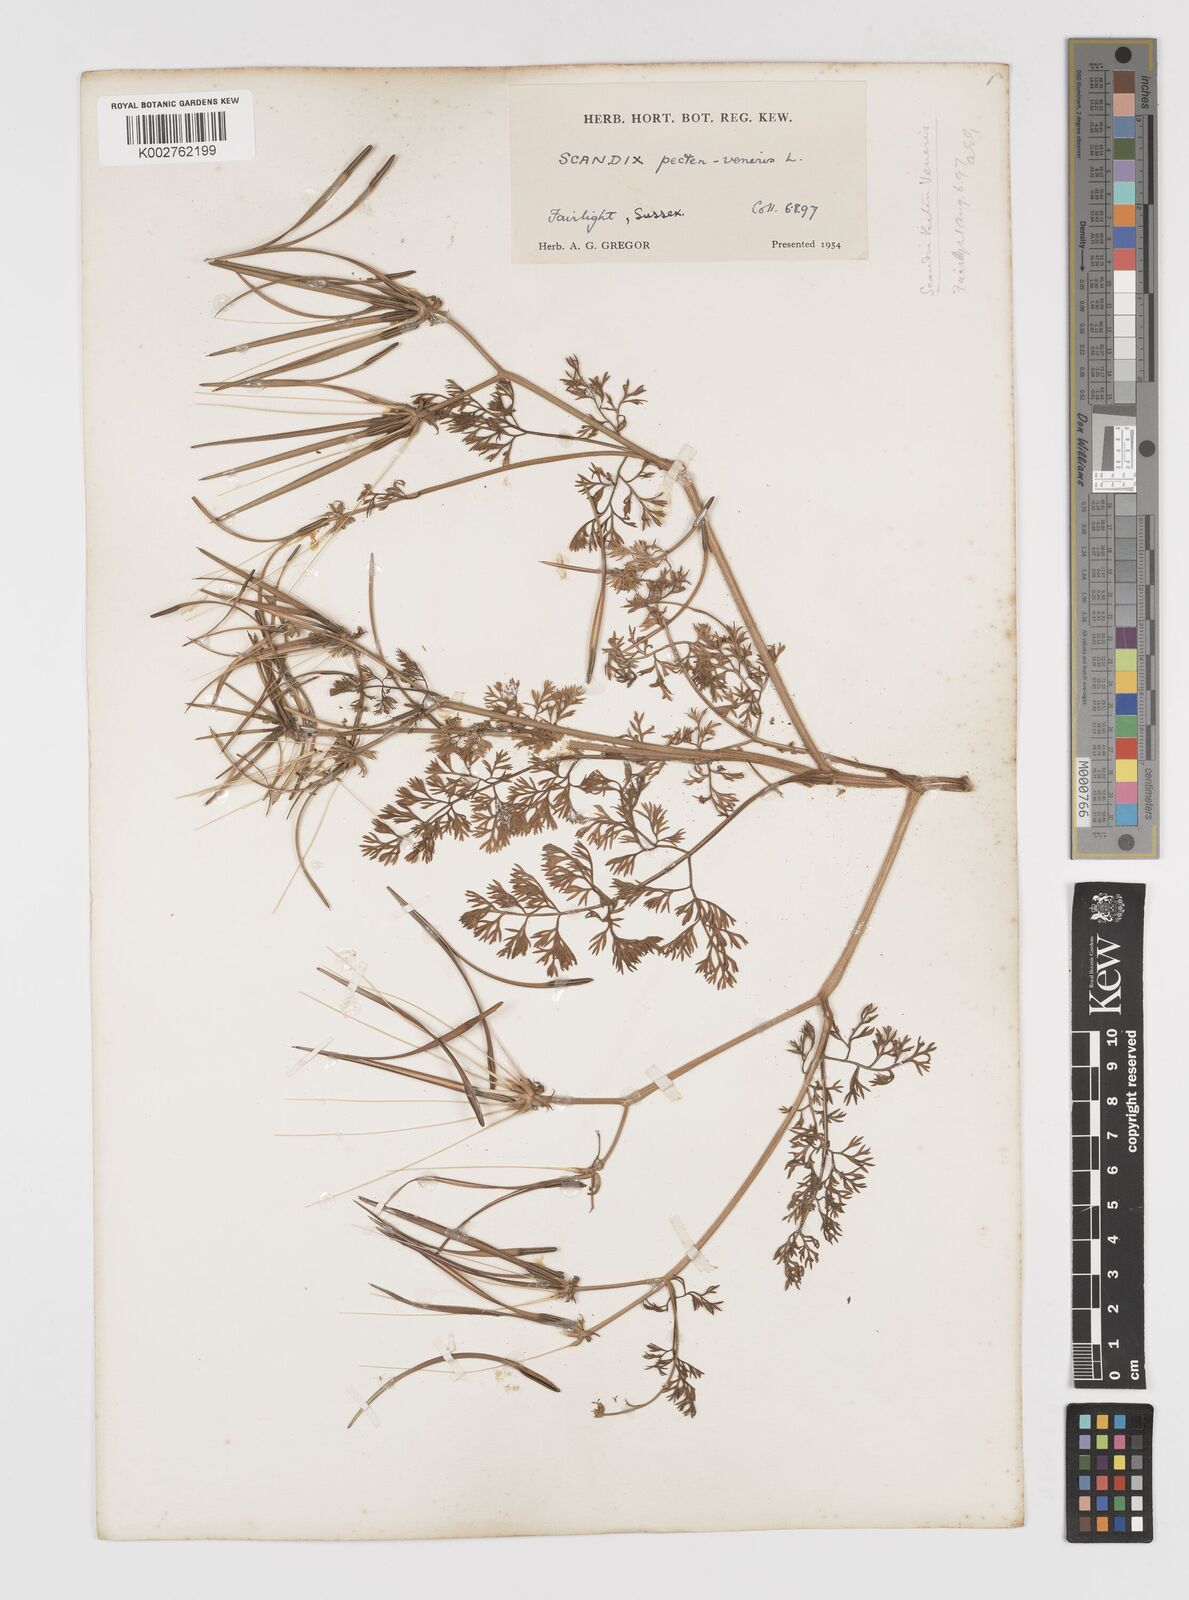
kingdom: Plantae
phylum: Tracheophyta
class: Magnoliopsida
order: Apiales
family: Apiaceae
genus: Scandix
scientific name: Scandix pecten-veneris
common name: Shepherd's-needle
